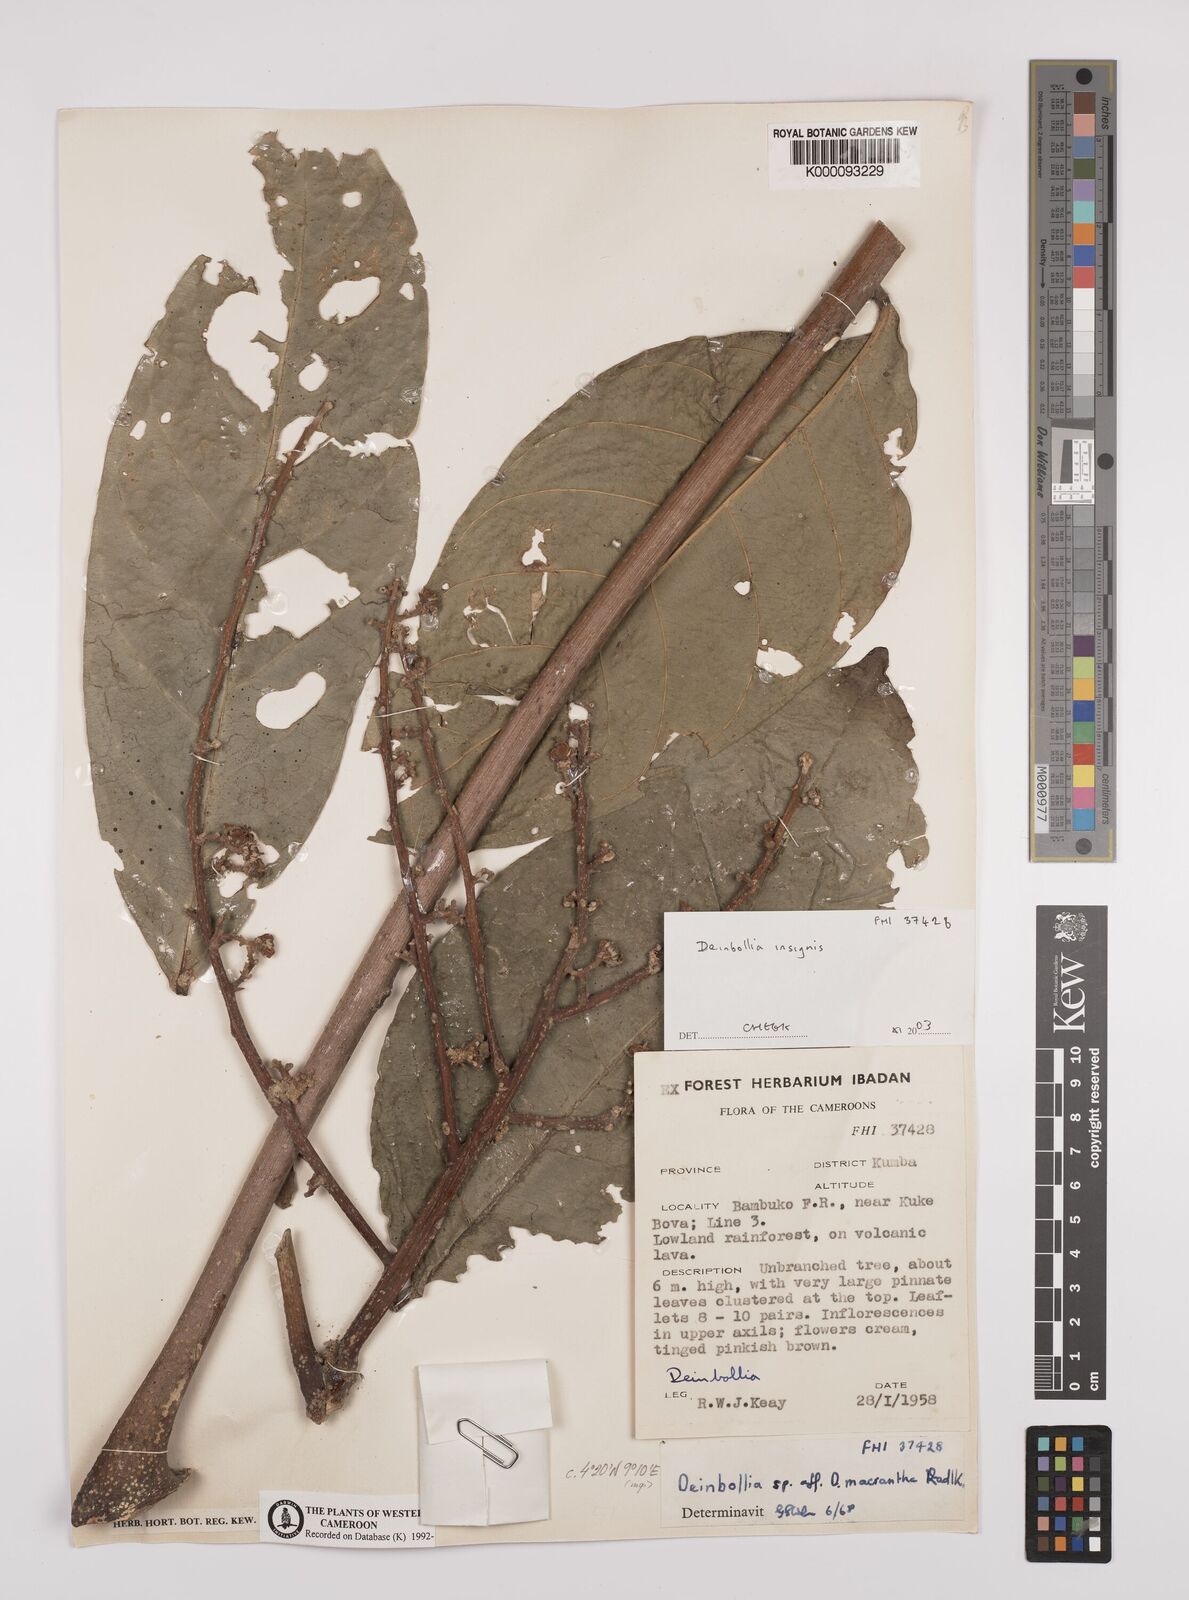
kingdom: Plantae
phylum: Tracheophyta
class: Magnoliopsida
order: Sapindales
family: Sapindaceae
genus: Deinbollia
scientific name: Deinbollia insignis
